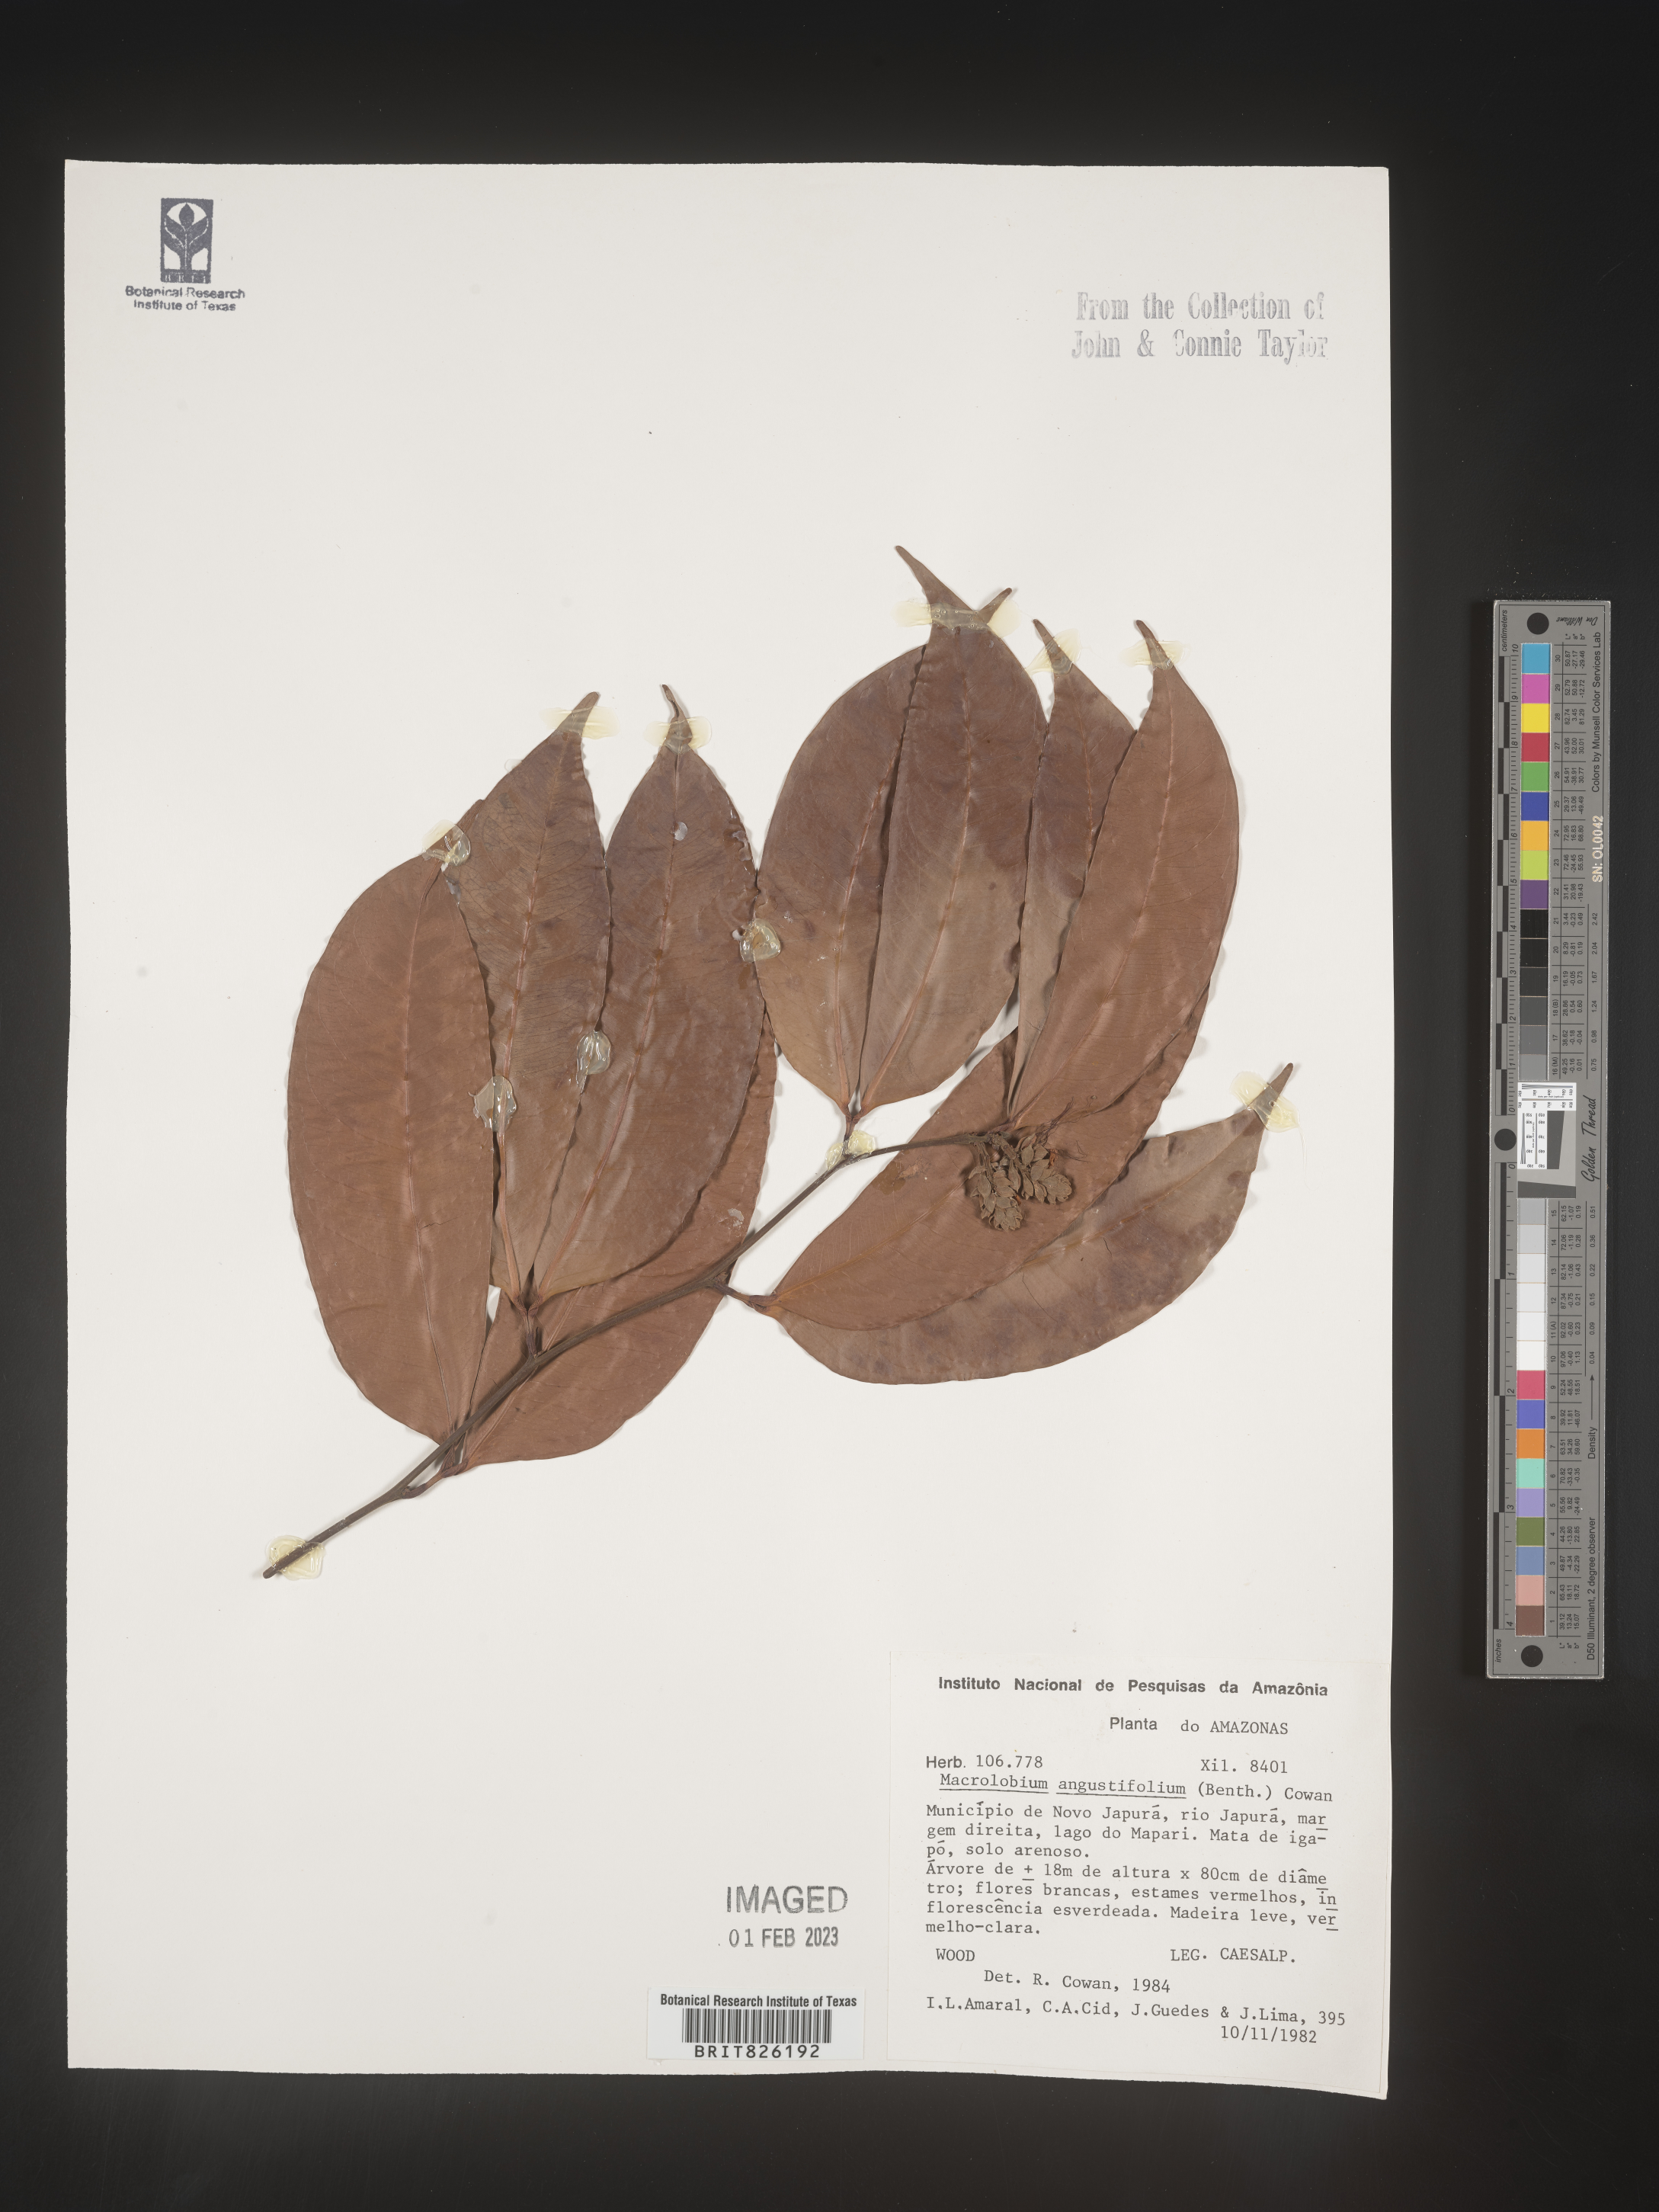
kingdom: Plantae
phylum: Tracheophyta
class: Magnoliopsida
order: Fabales
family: Fabaceae
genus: Macrolobium
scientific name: Macrolobium
